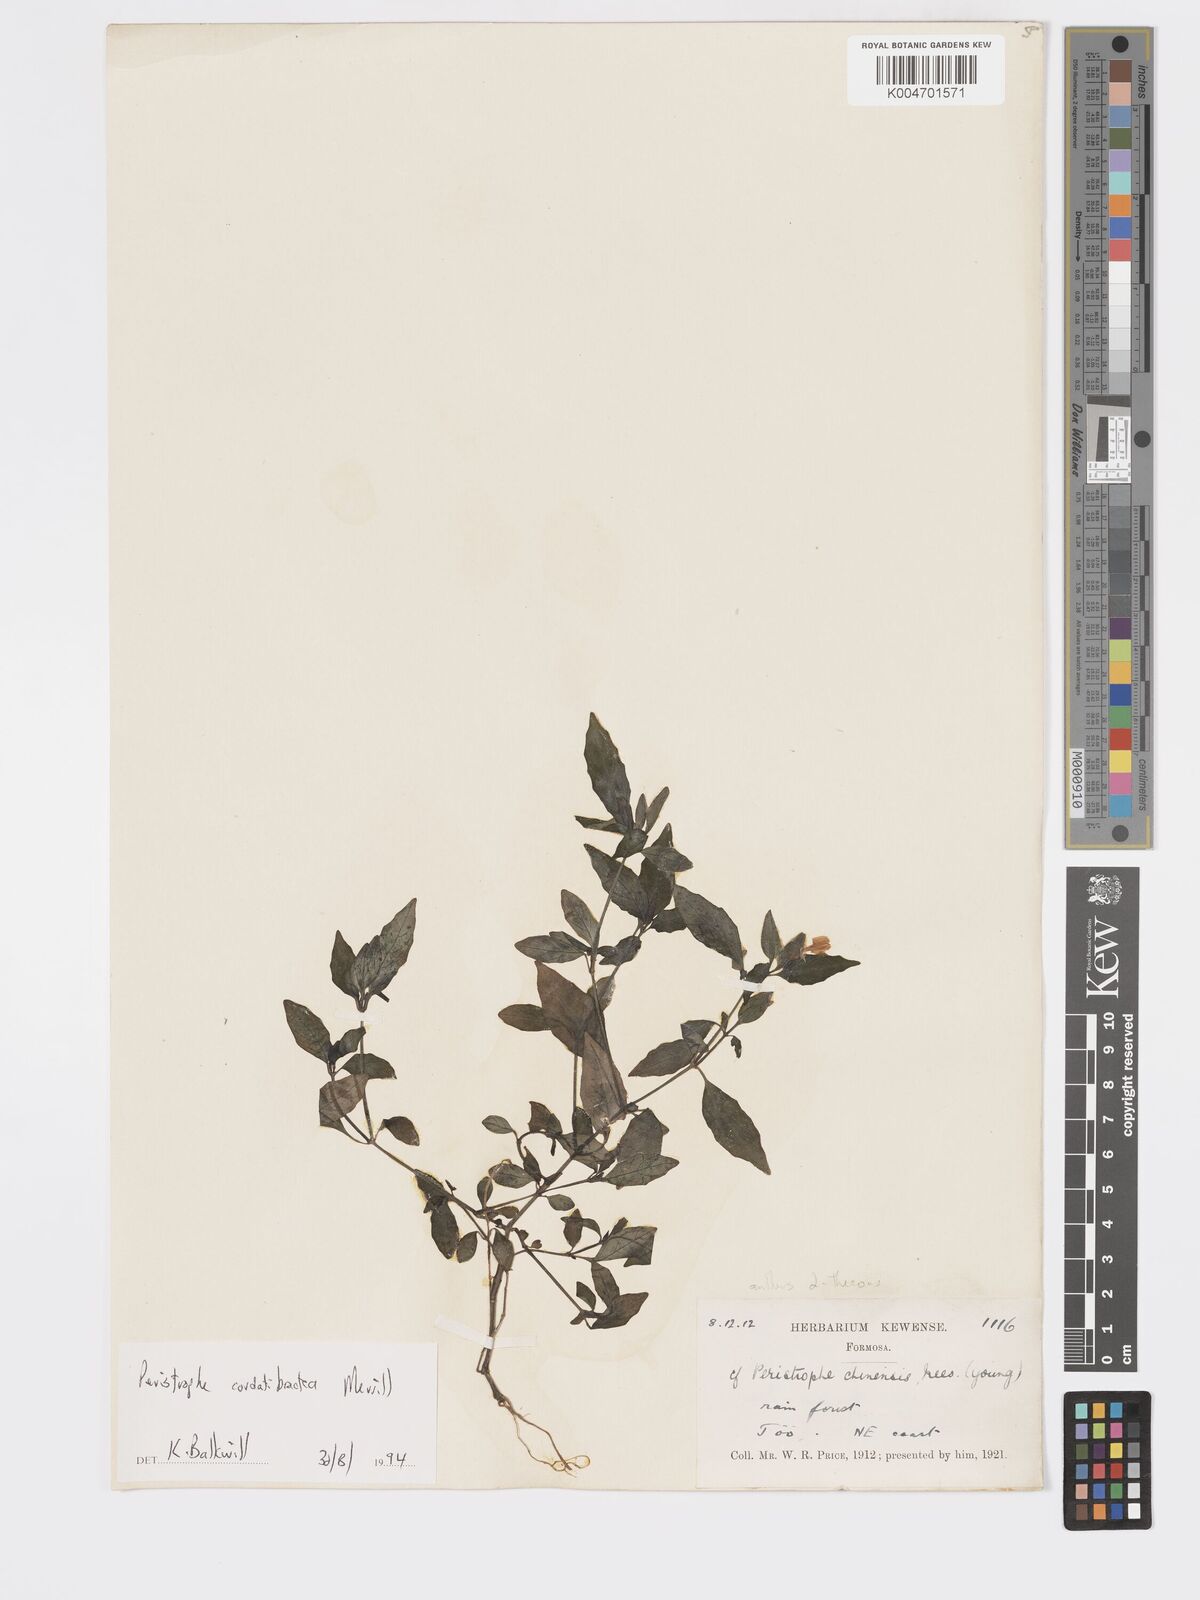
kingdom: Plantae
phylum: Tracheophyta
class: Magnoliopsida
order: Lamiales
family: Acanthaceae
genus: Dicliptera
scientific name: Dicliptera cordibracteata
